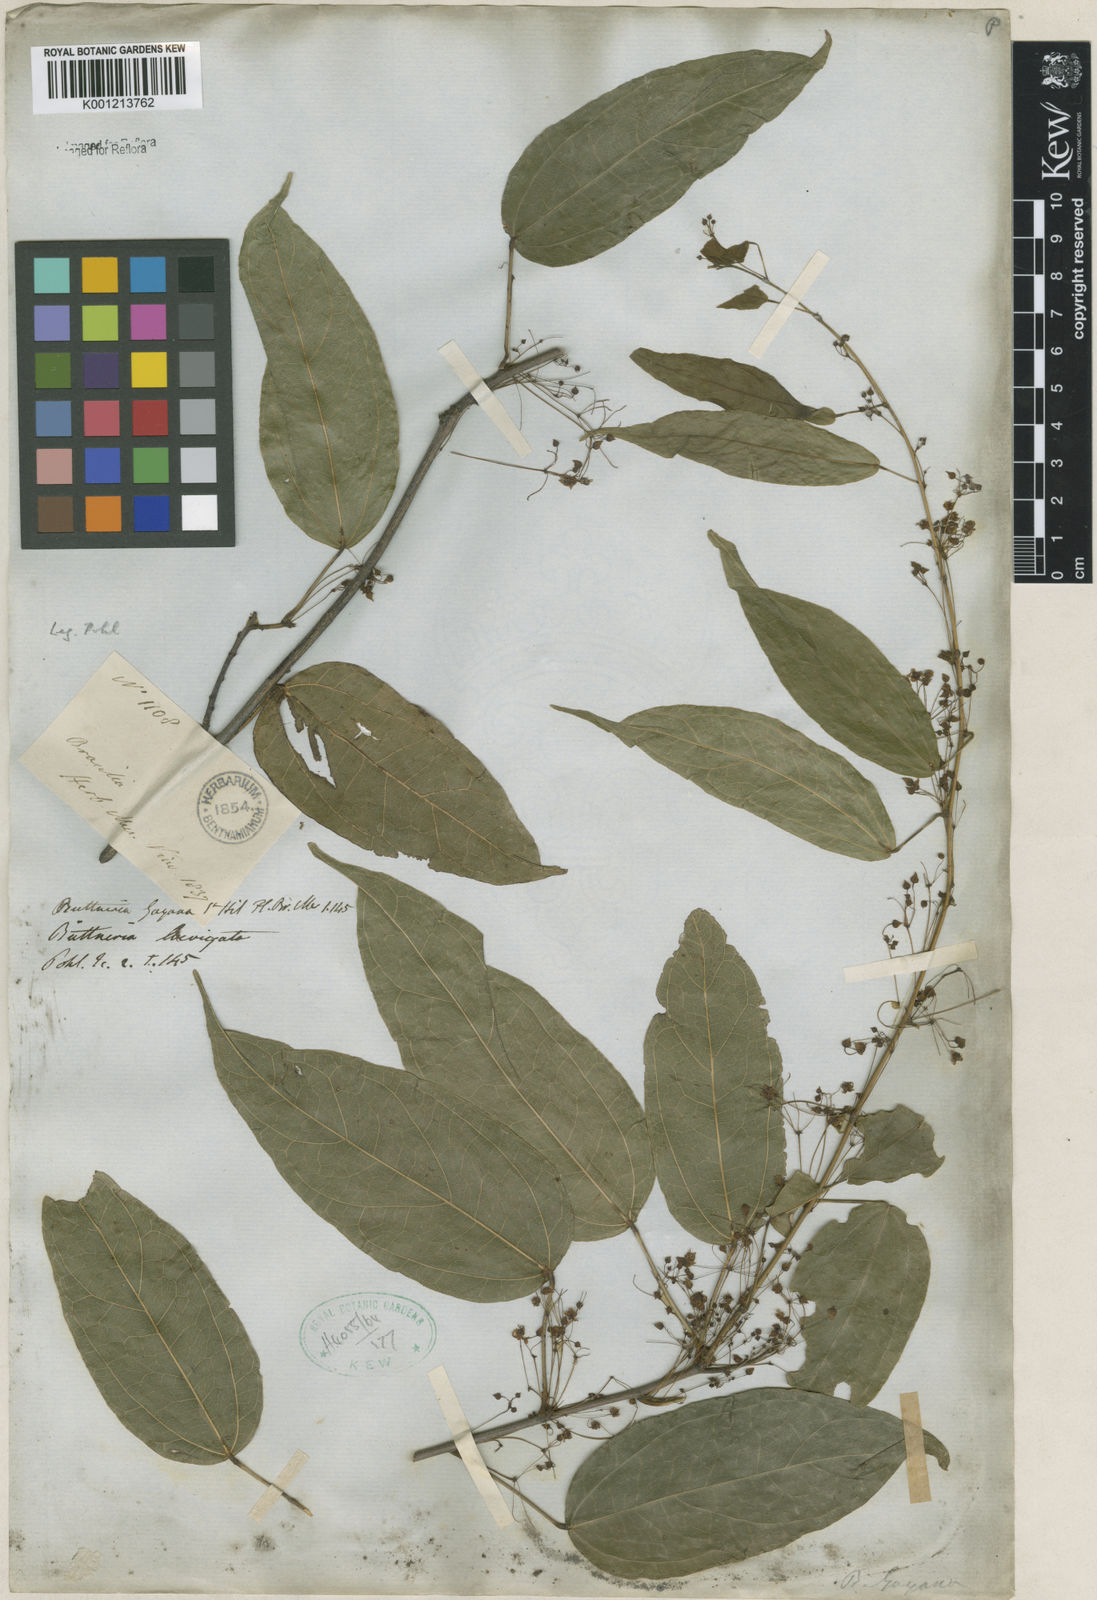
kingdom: Plantae
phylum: Tracheophyta
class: Magnoliopsida
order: Malvales
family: Malvaceae
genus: Byttneria
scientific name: Byttneria gayana
